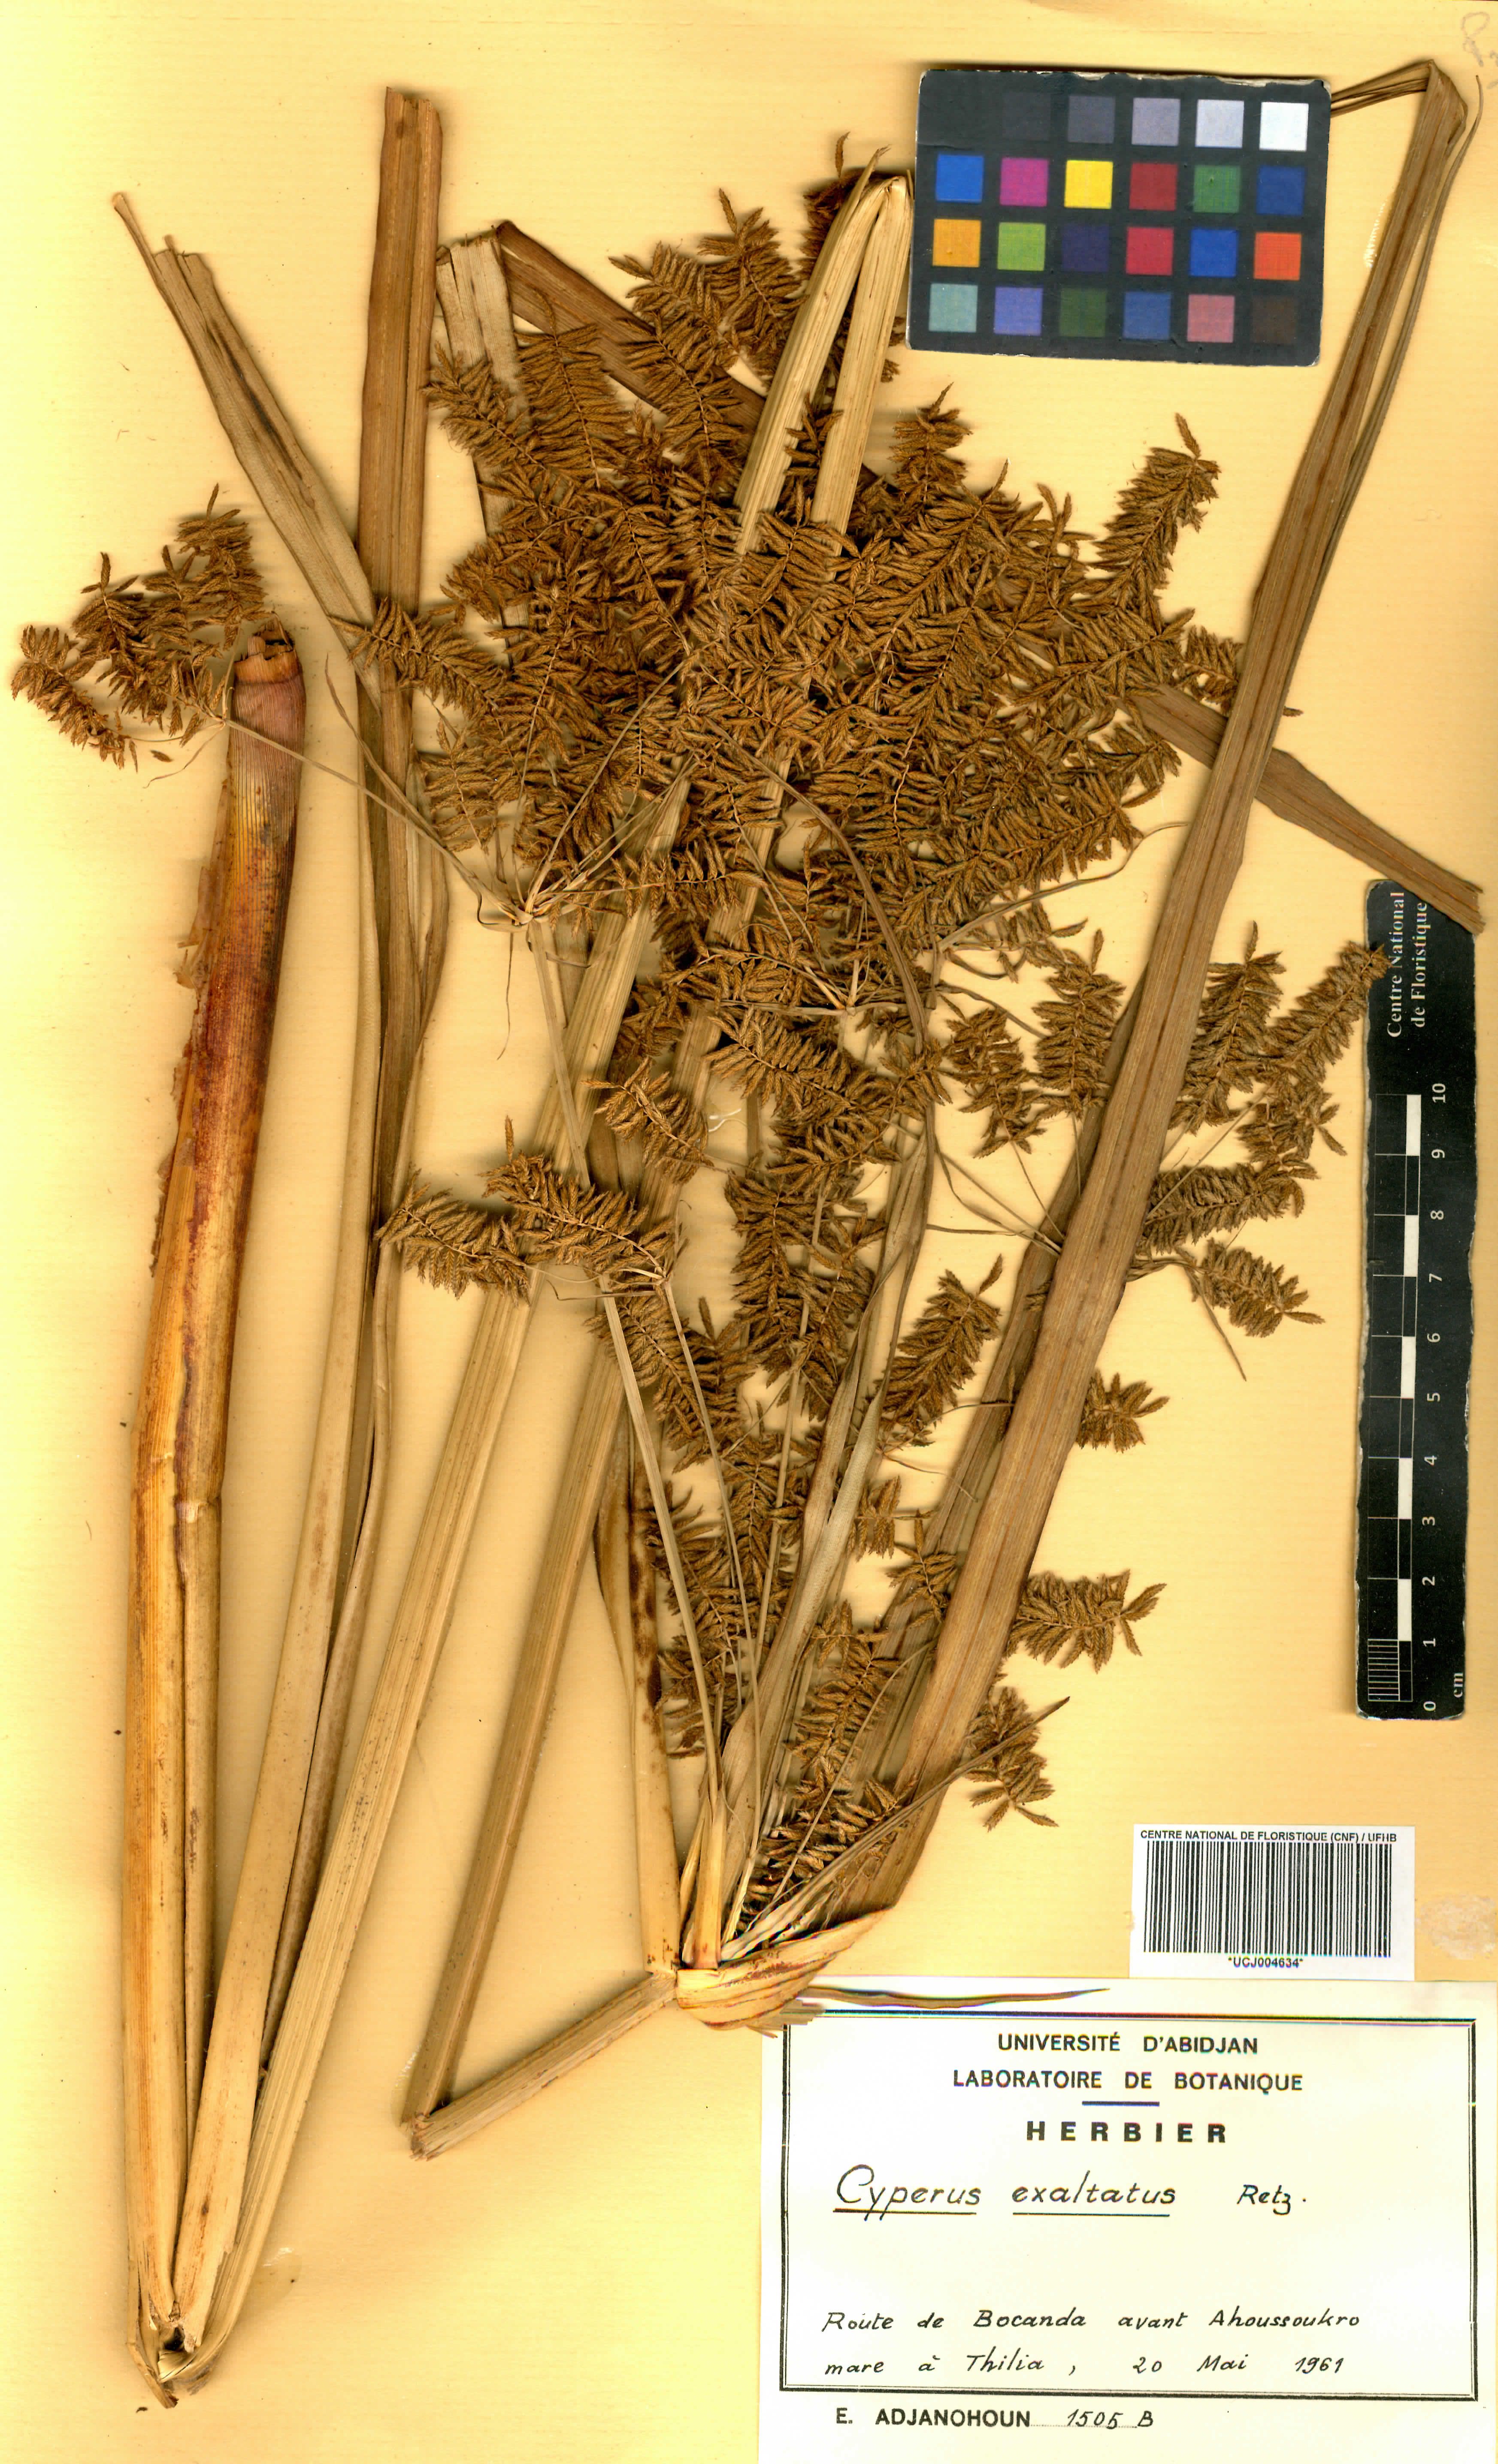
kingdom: Plantae
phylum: Tracheophyta
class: Liliopsida
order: Poales
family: Cyperaceae
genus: Cyperus
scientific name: Cyperus exaltatus
